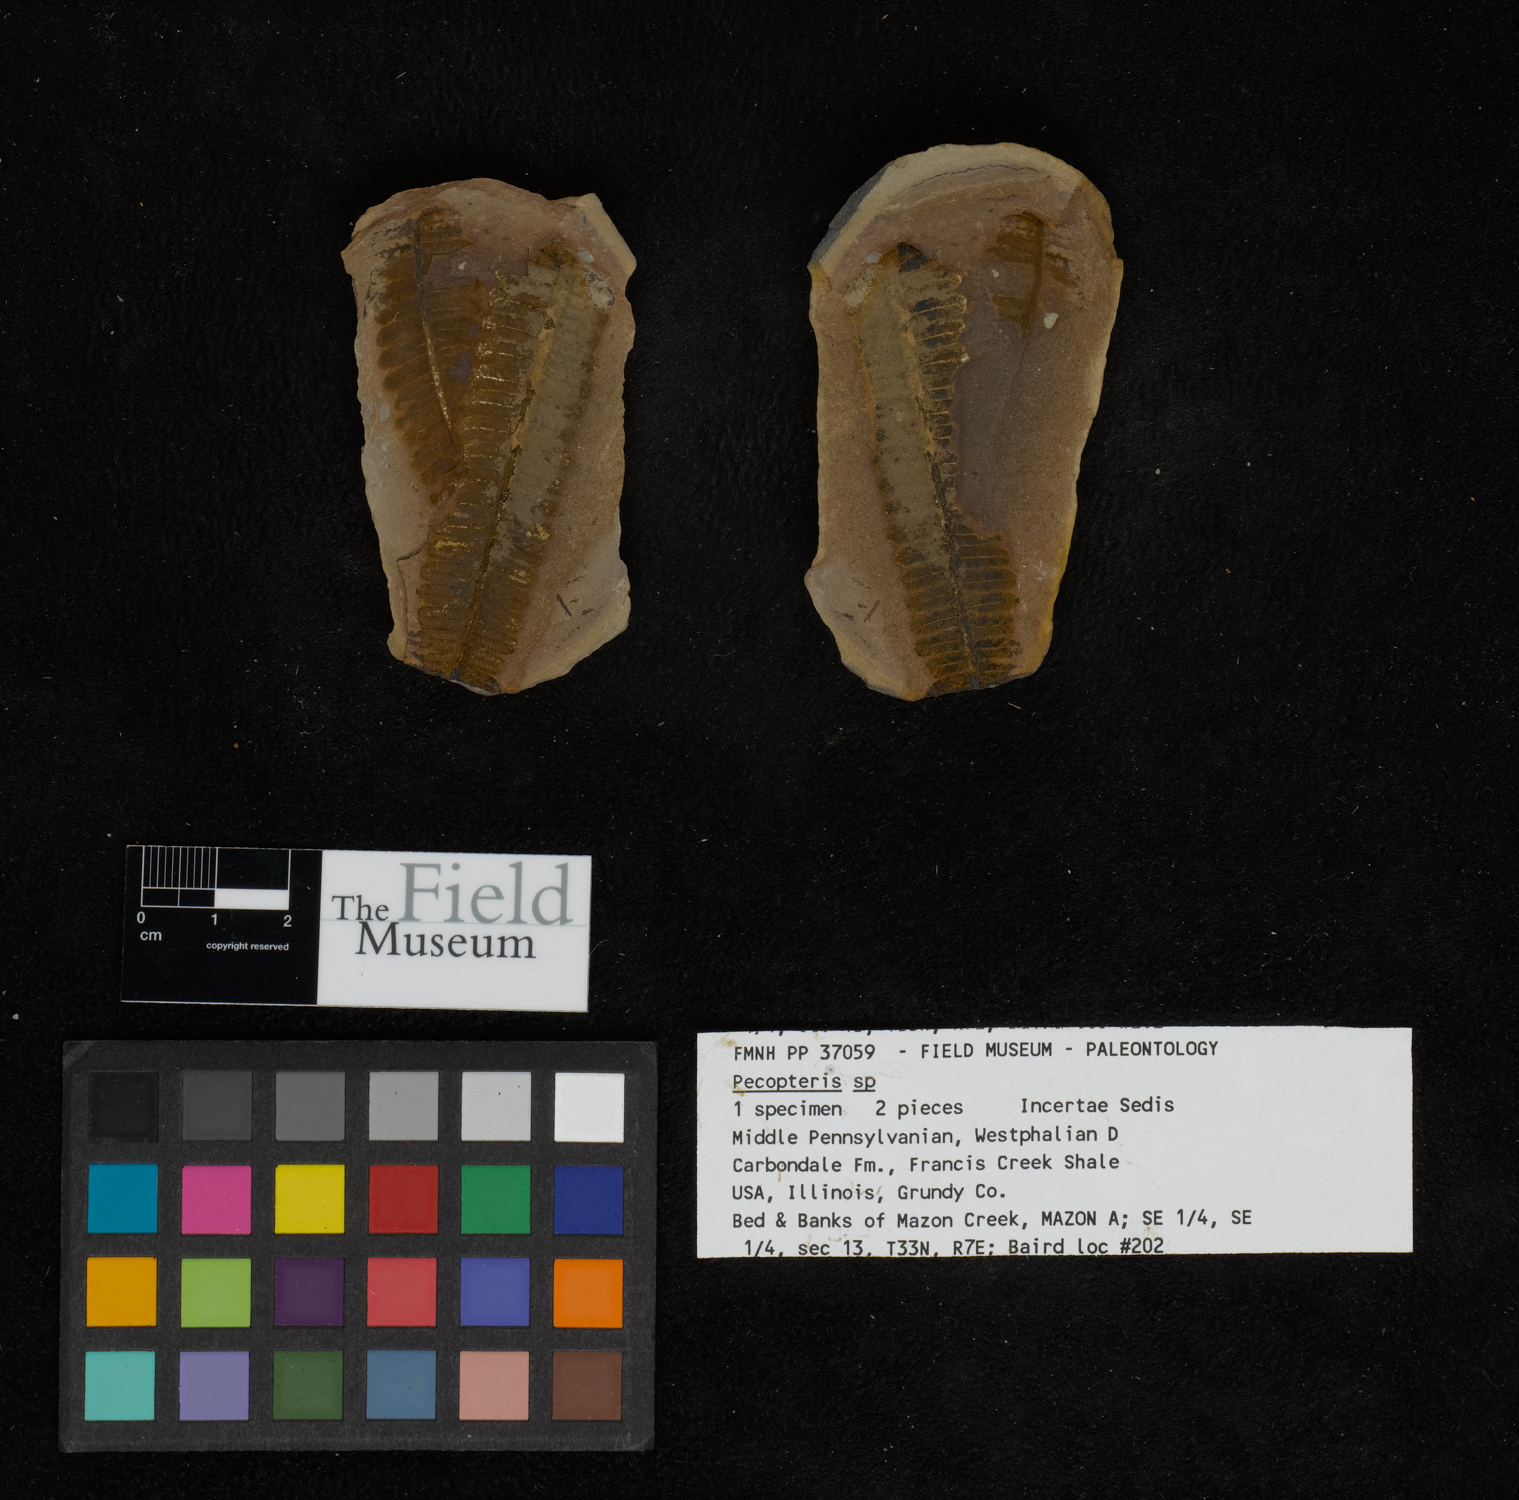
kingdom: Plantae
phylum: Tracheophyta
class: Polypodiopsida
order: Marattiales
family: Asterothecaceae
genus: Pecopteris
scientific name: Pecopteris
